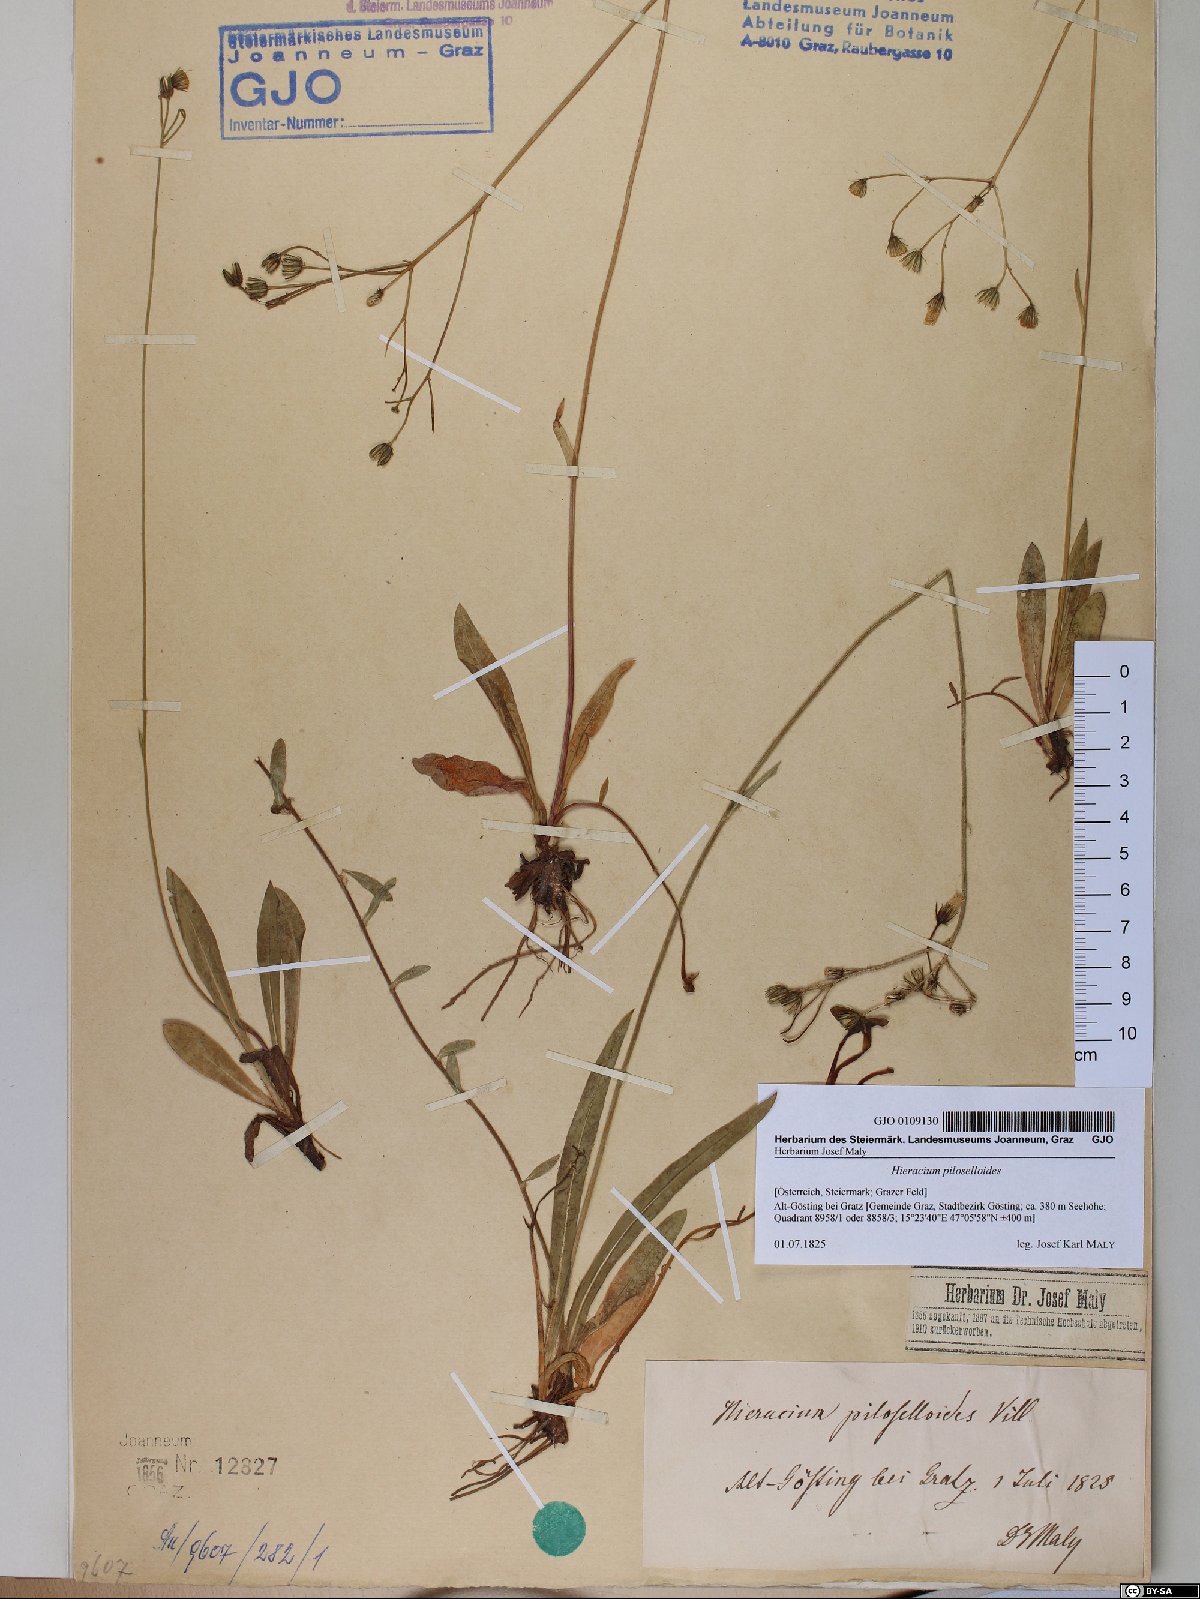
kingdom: Plantae
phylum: Tracheophyta
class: Magnoliopsida
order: Asterales
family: Asteraceae
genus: Pilosella
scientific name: Pilosella piloselloides
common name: Glaucous king-devil
